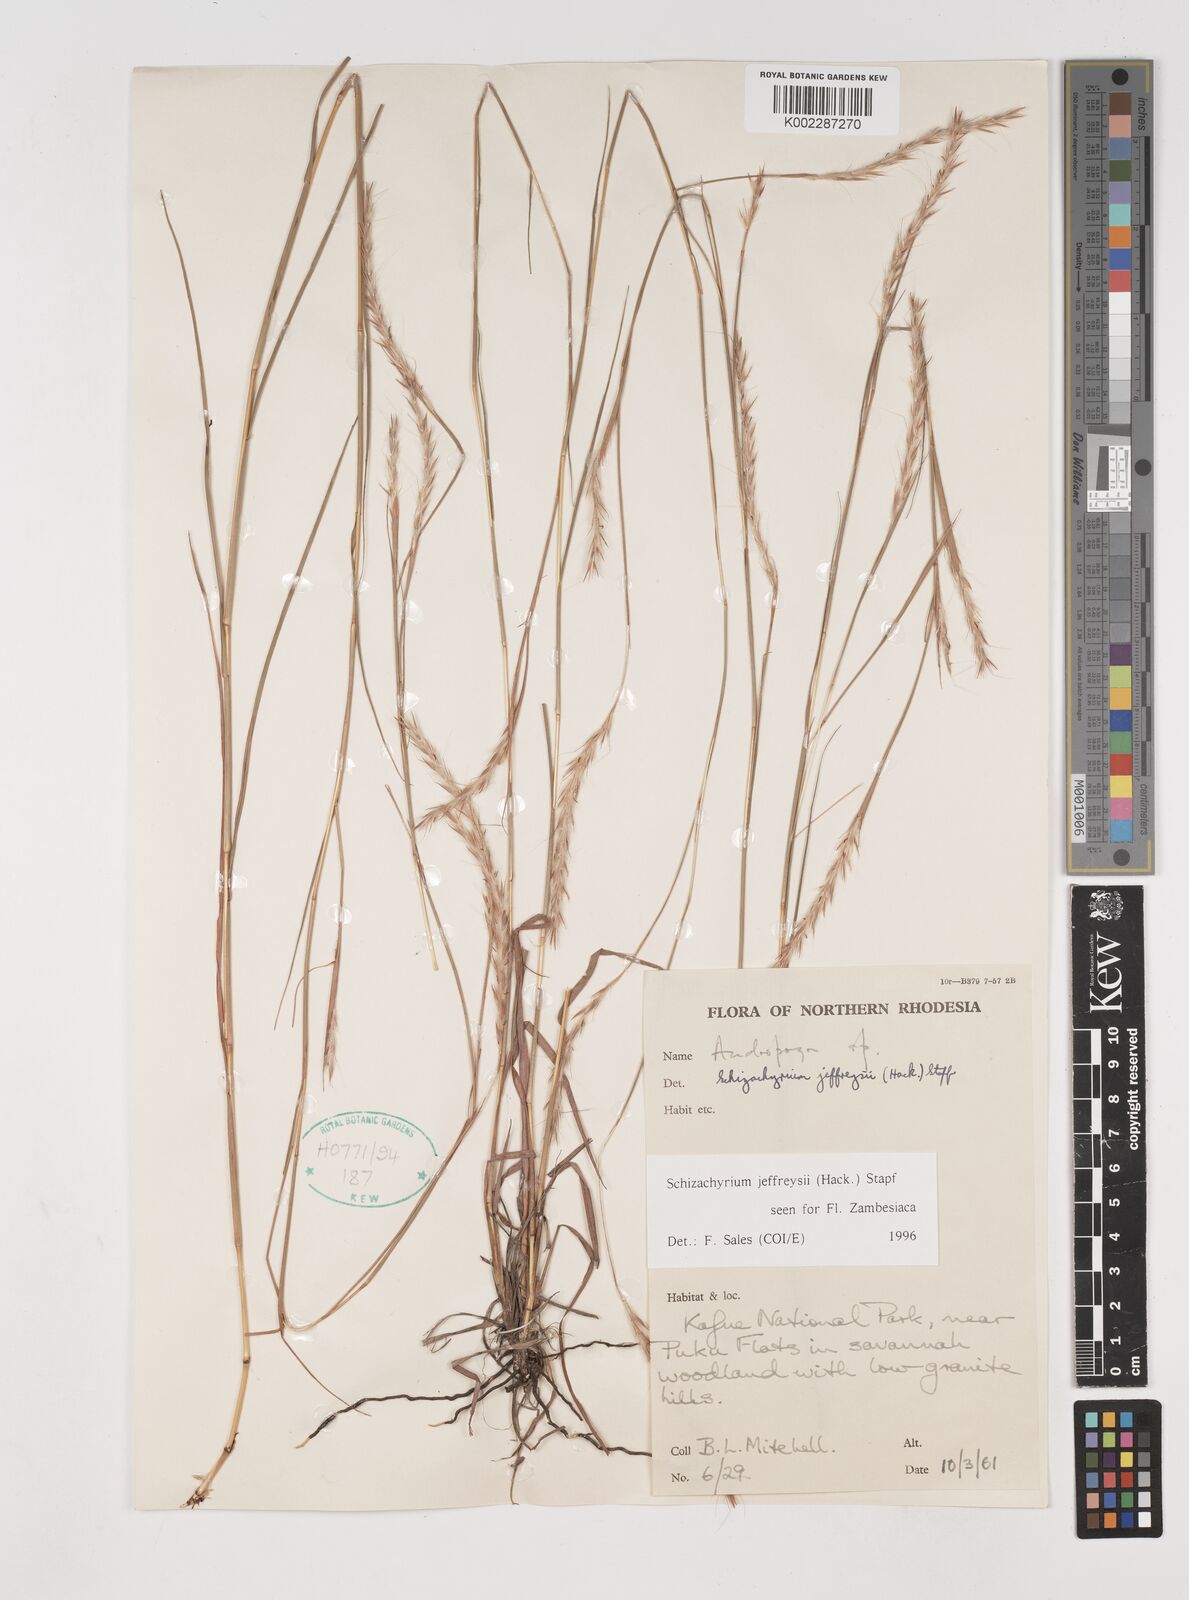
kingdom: Plantae
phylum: Tracheophyta
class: Liliopsida
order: Poales
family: Poaceae
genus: Schizachyrium
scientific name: Schizachyrium jeffreysii
